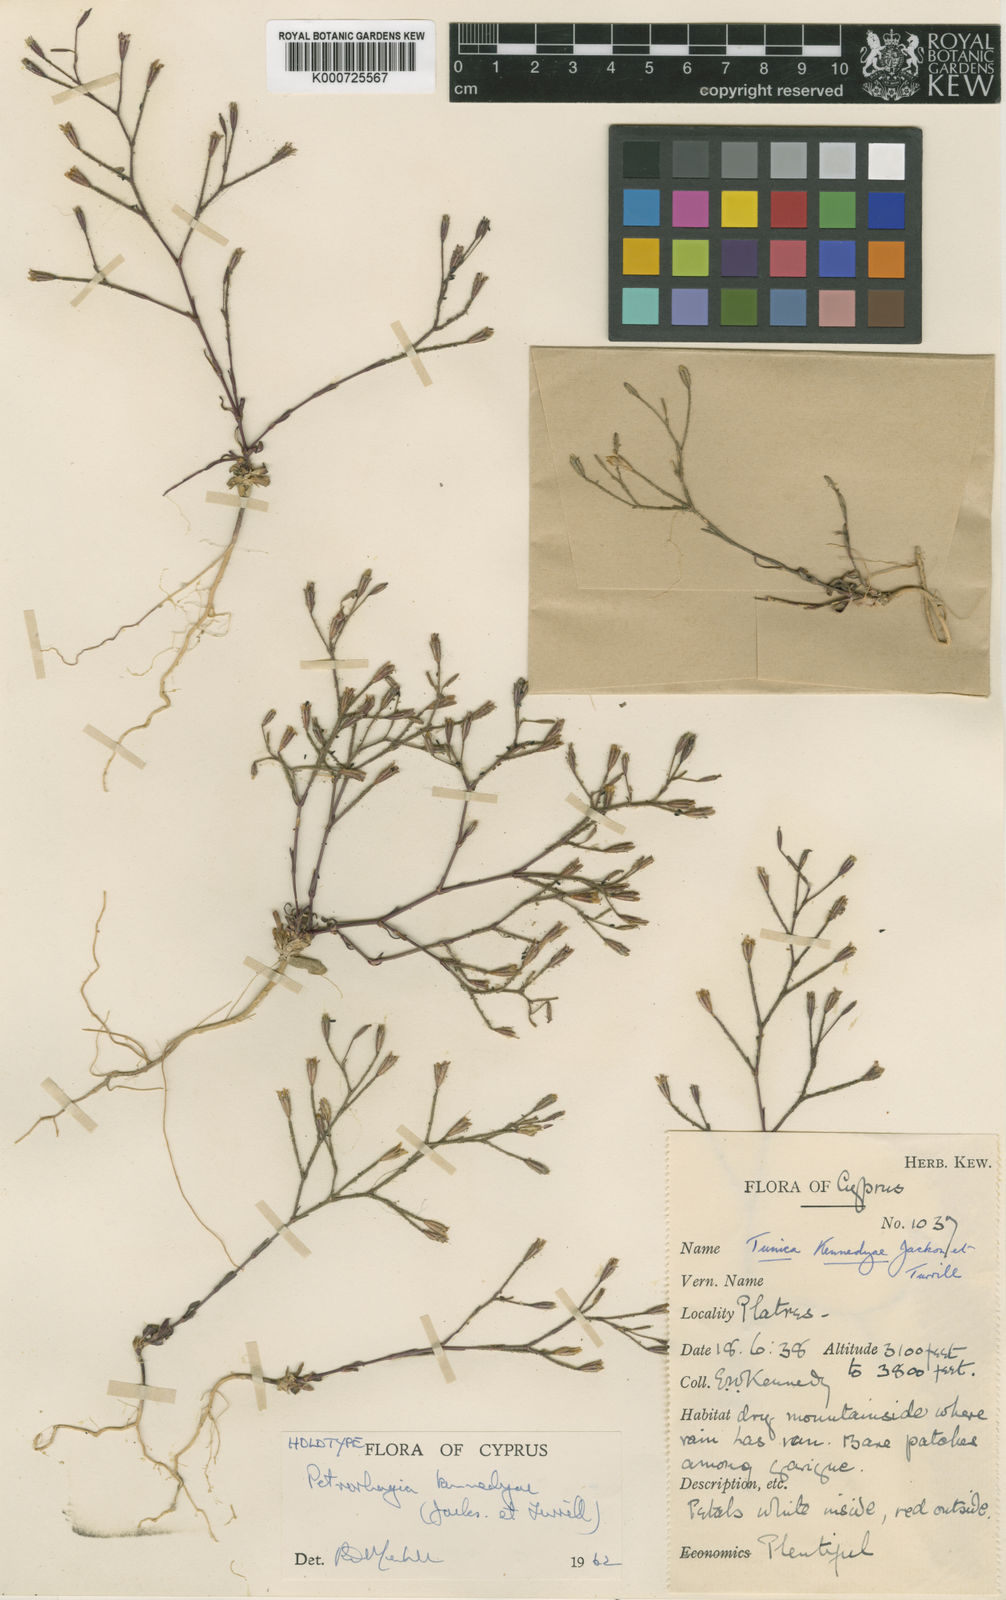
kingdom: Plantae
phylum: Tracheophyta
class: Magnoliopsida
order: Caryophyllales
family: Caryophyllaceae
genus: Petrorhagia
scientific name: Petrorhagia
